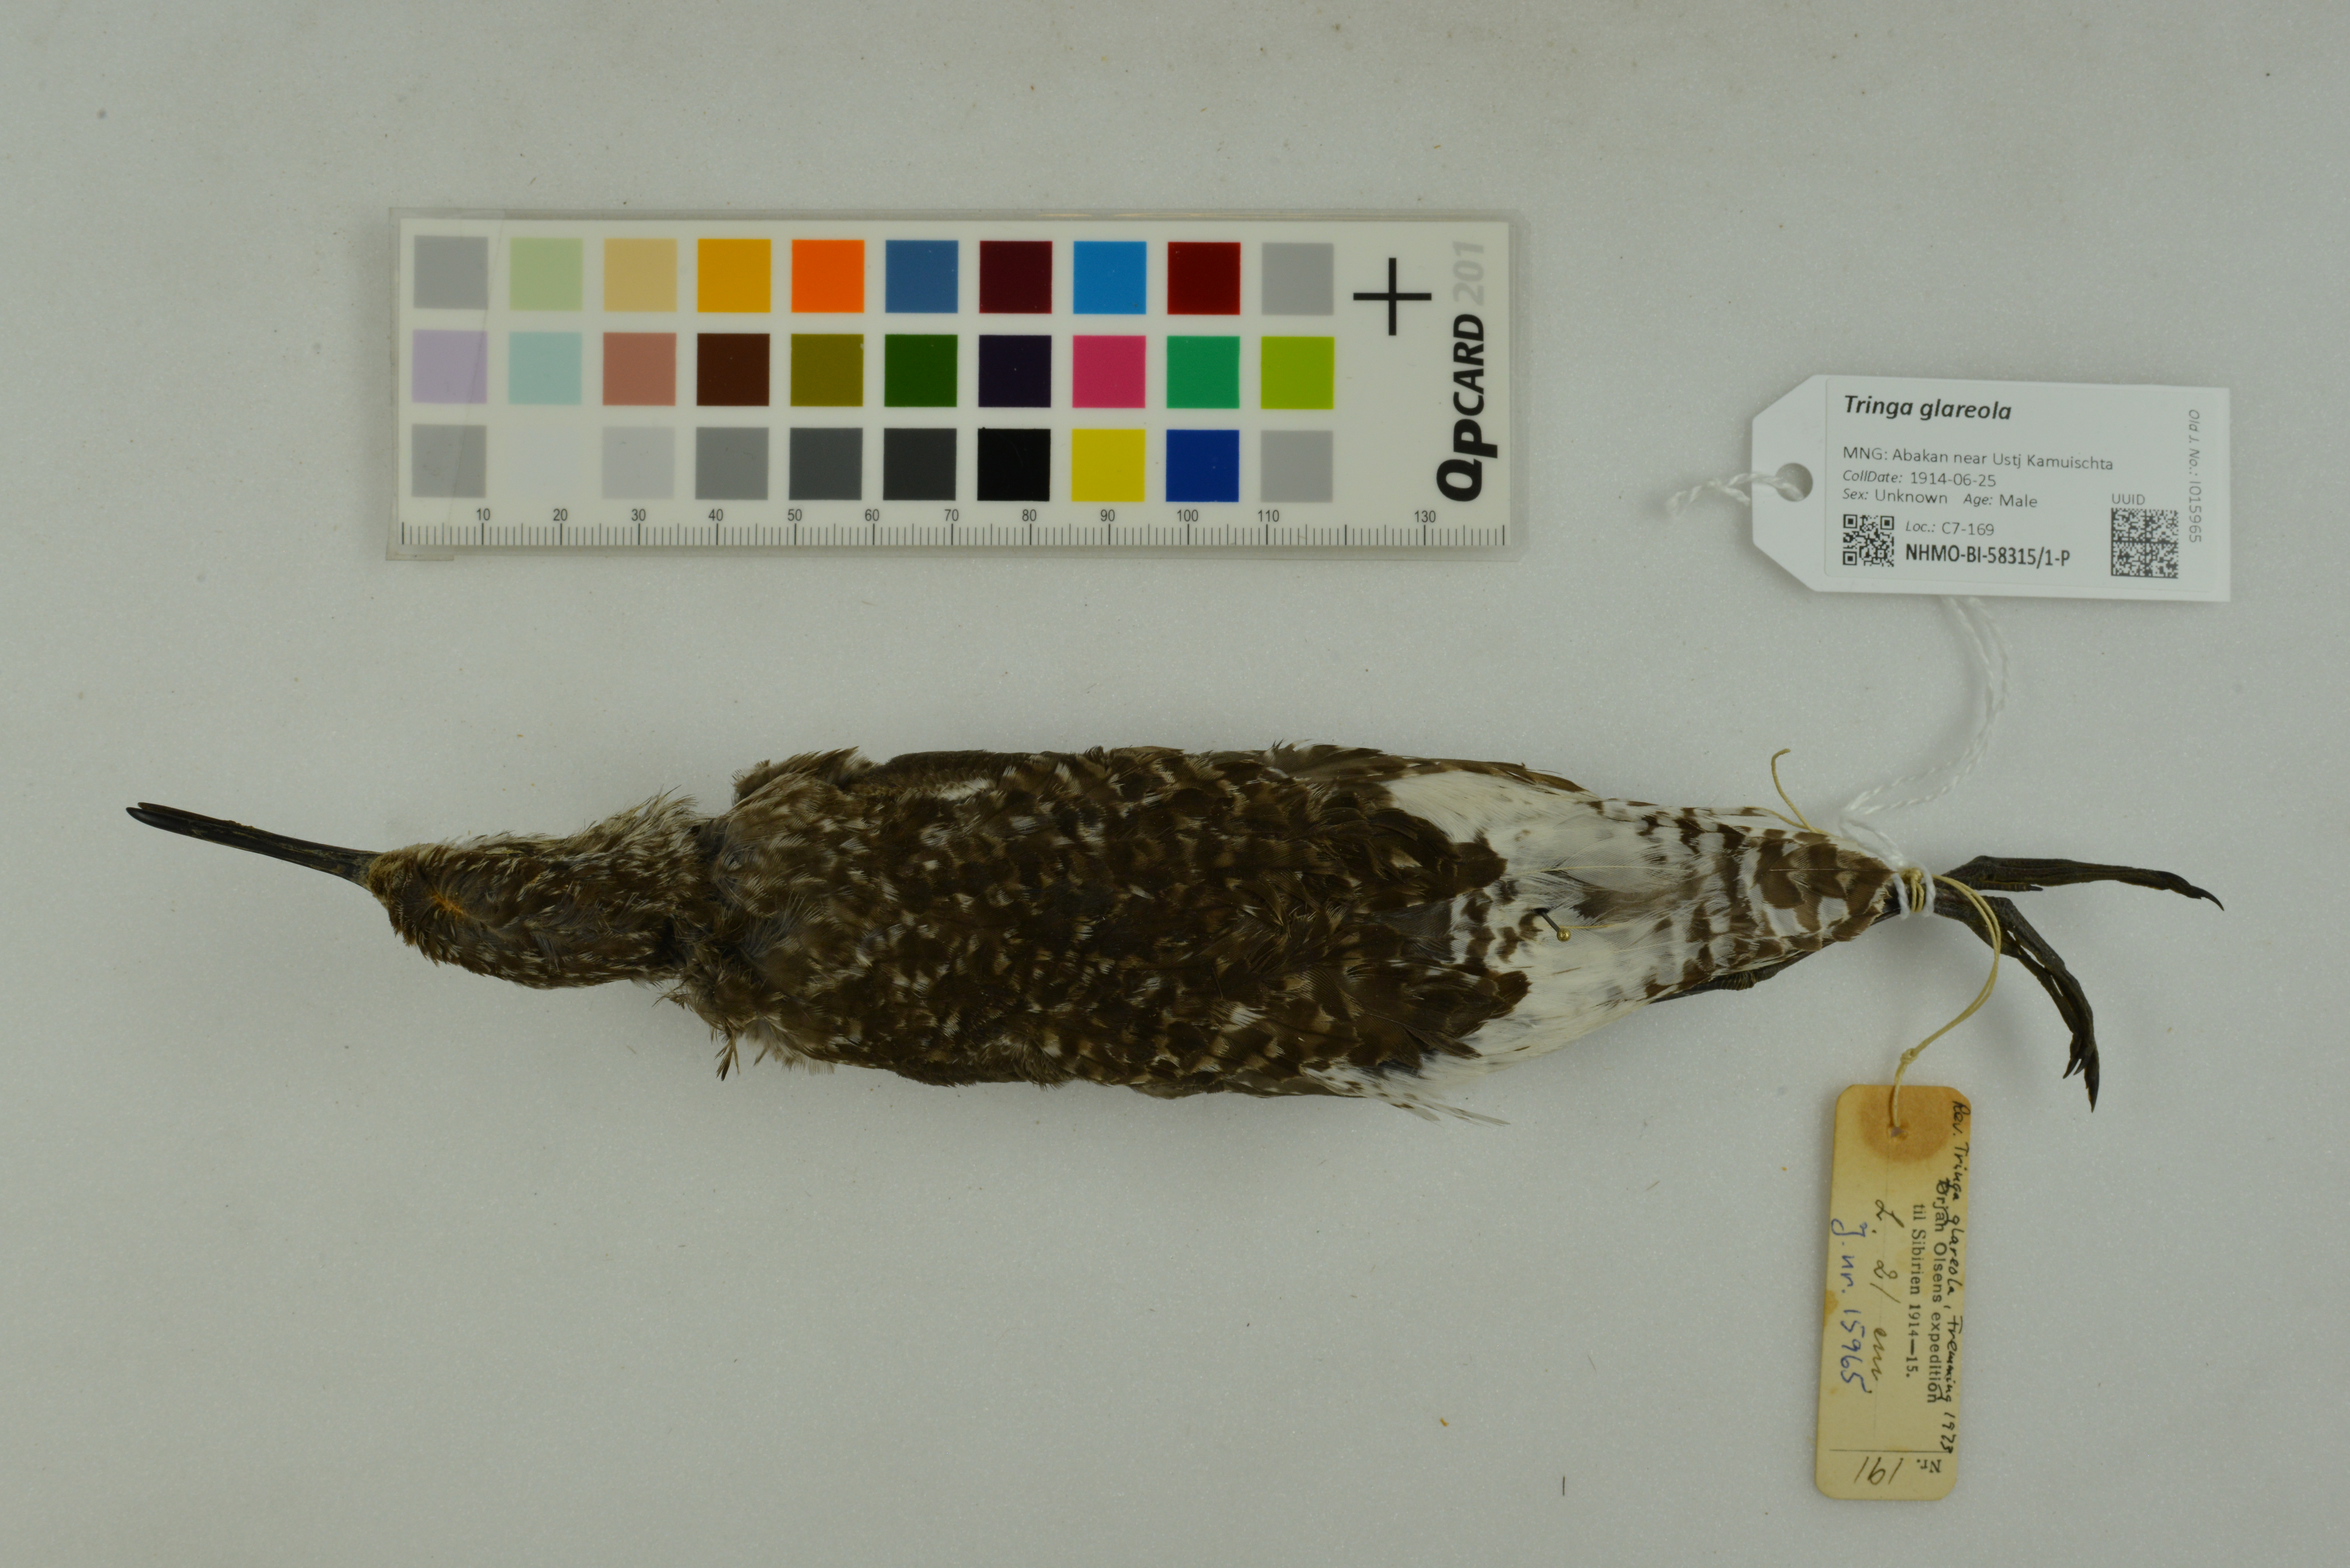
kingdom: Animalia
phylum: Chordata
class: Aves
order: Charadriiformes
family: Scolopacidae
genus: Tringa
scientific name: Tringa glareola
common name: Wood sandpiper
